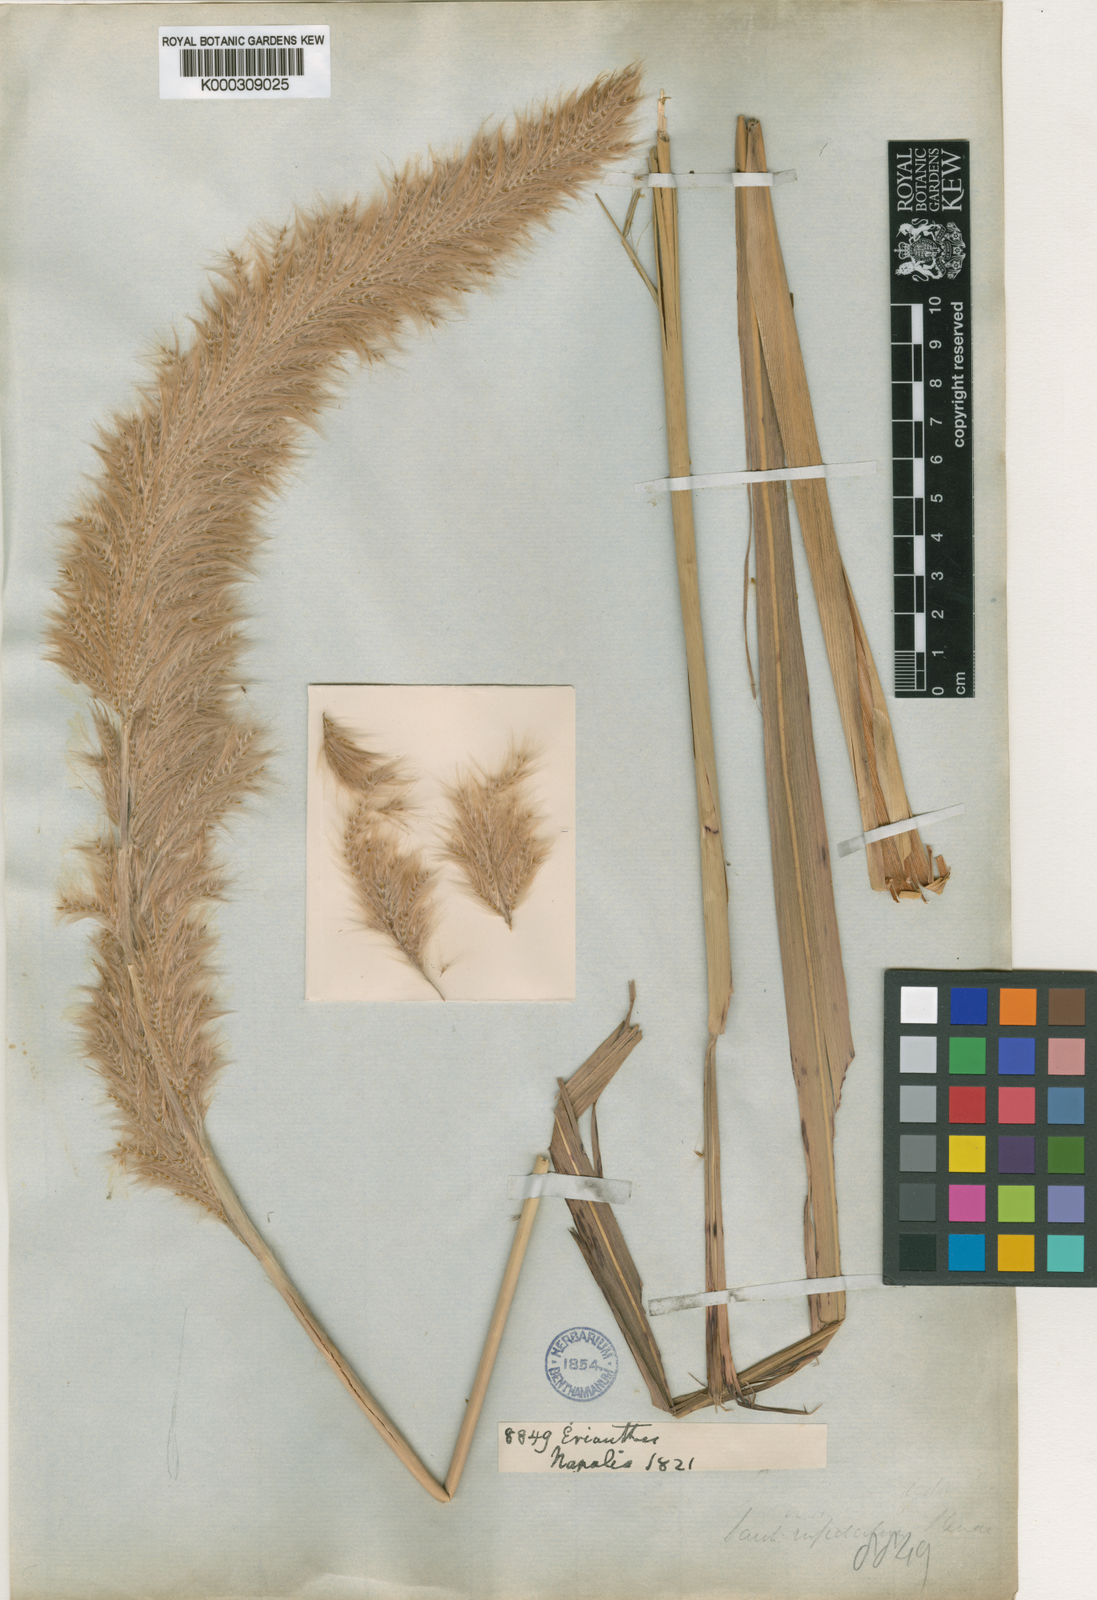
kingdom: Plantae
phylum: Tracheophyta
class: Liliopsida
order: Poales
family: Poaceae
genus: Tripidium
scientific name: Tripidium rufipilum
